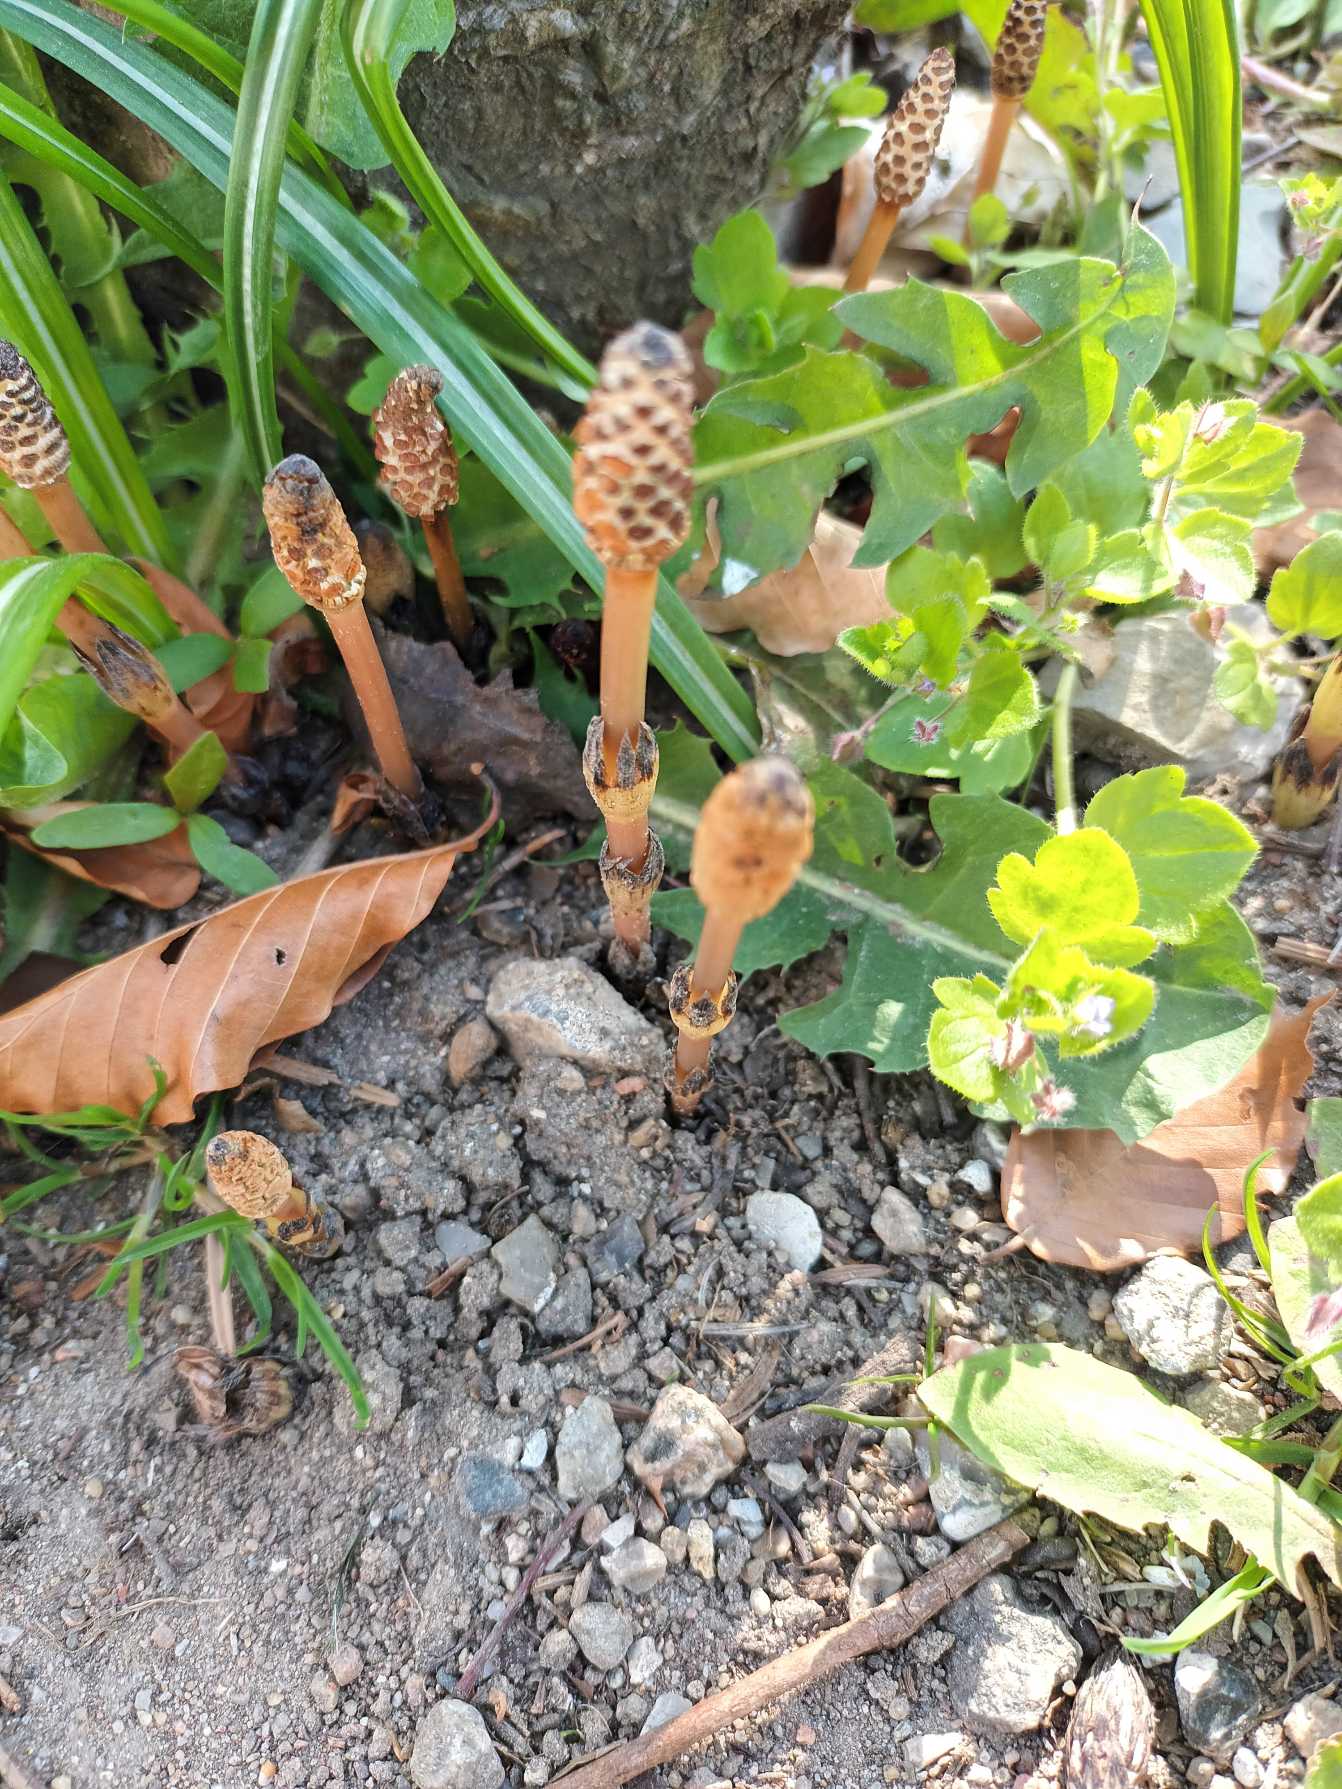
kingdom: Plantae
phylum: Tracheophyta
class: Polypodiopsida
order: Equisetales
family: Equisetaceae
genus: Equisetum
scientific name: Equisetum arvense
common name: Ager-padderok
